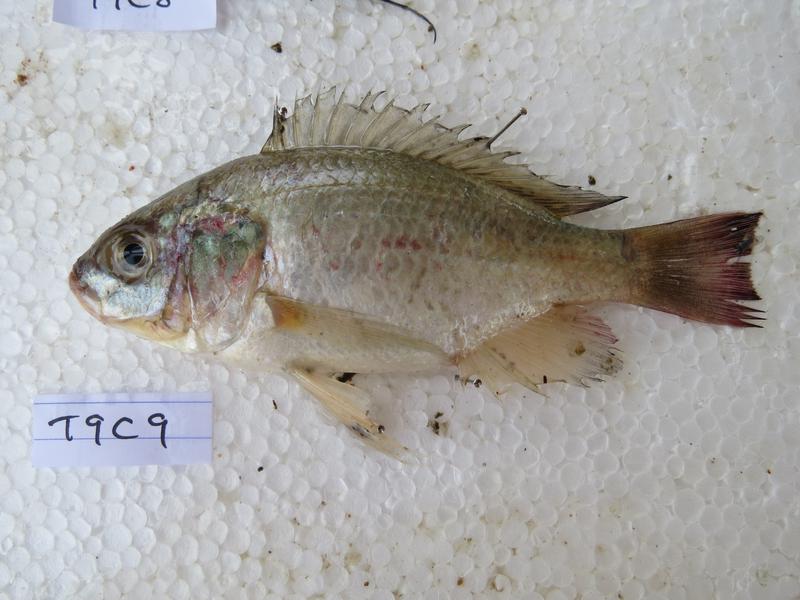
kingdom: Animalia
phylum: Chordata
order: Perciformes
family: Cichlidae
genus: Oreochromis
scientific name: Oreochromis esculentus
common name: Carp
